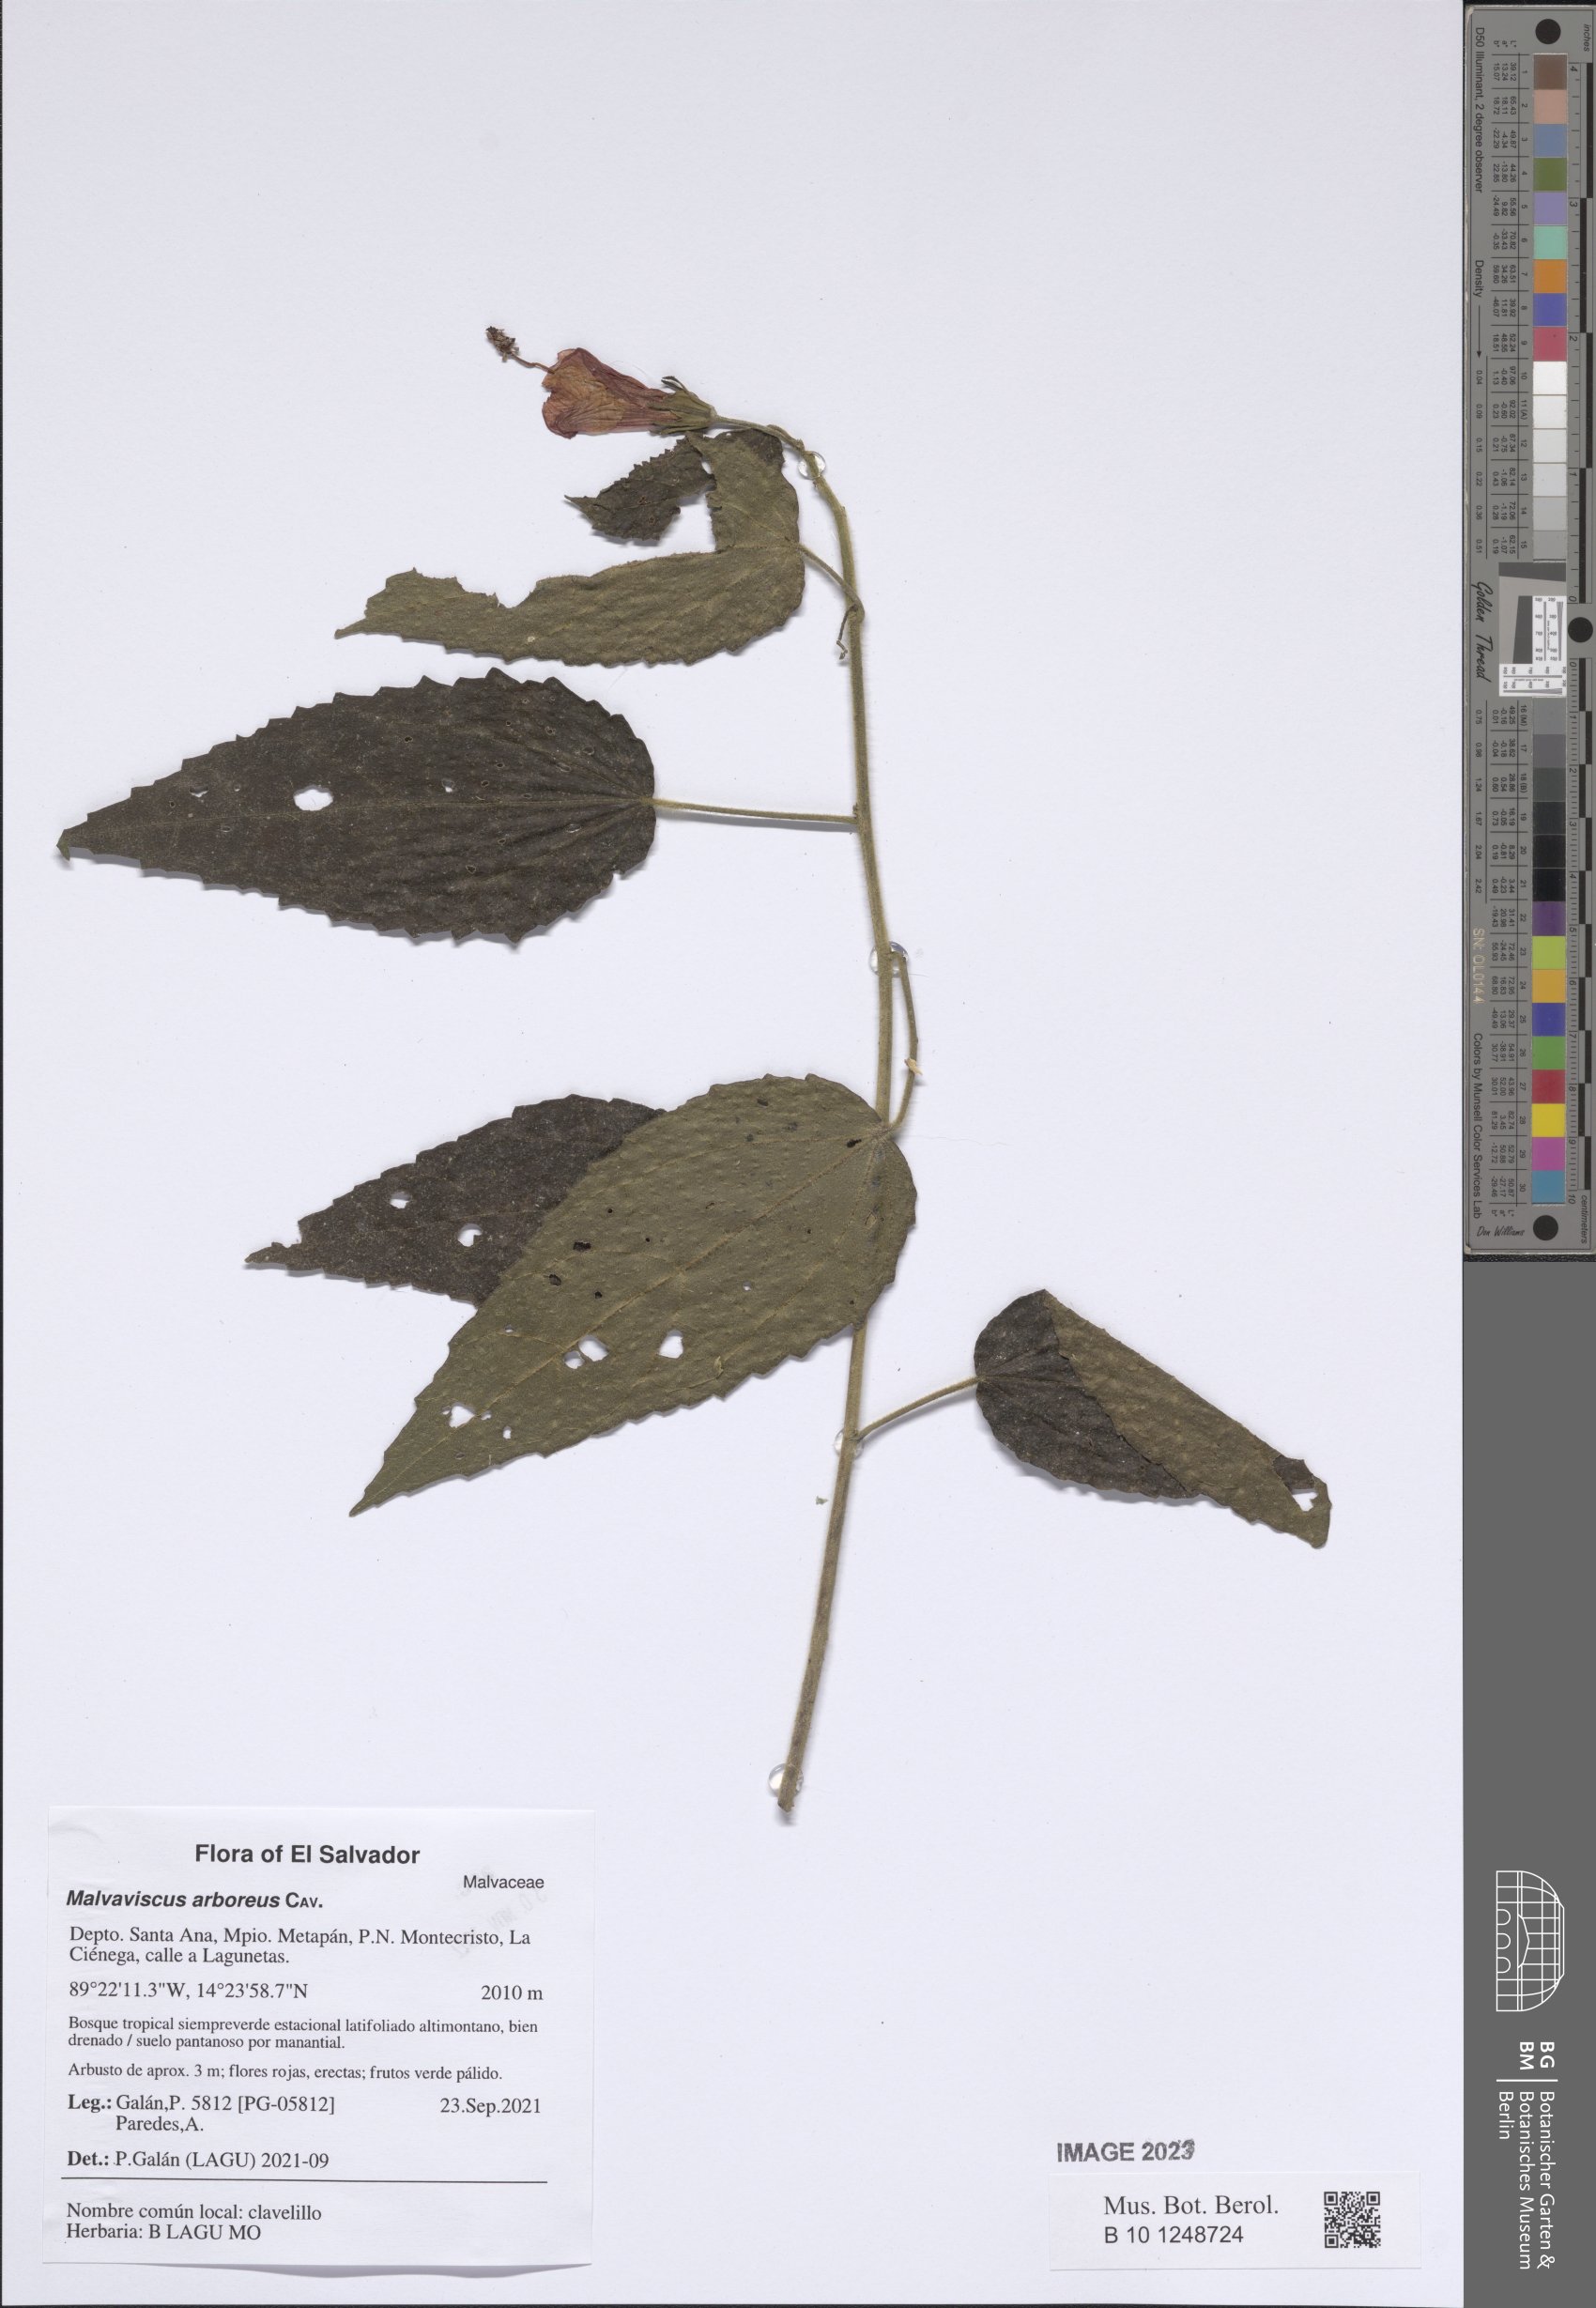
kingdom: Plantae
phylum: Tracheophyta
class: Magnoliopsida
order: Malvales
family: Malvaceae
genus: Malvaviscus
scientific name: Malvaviscus arboreus
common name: Wax mallow
